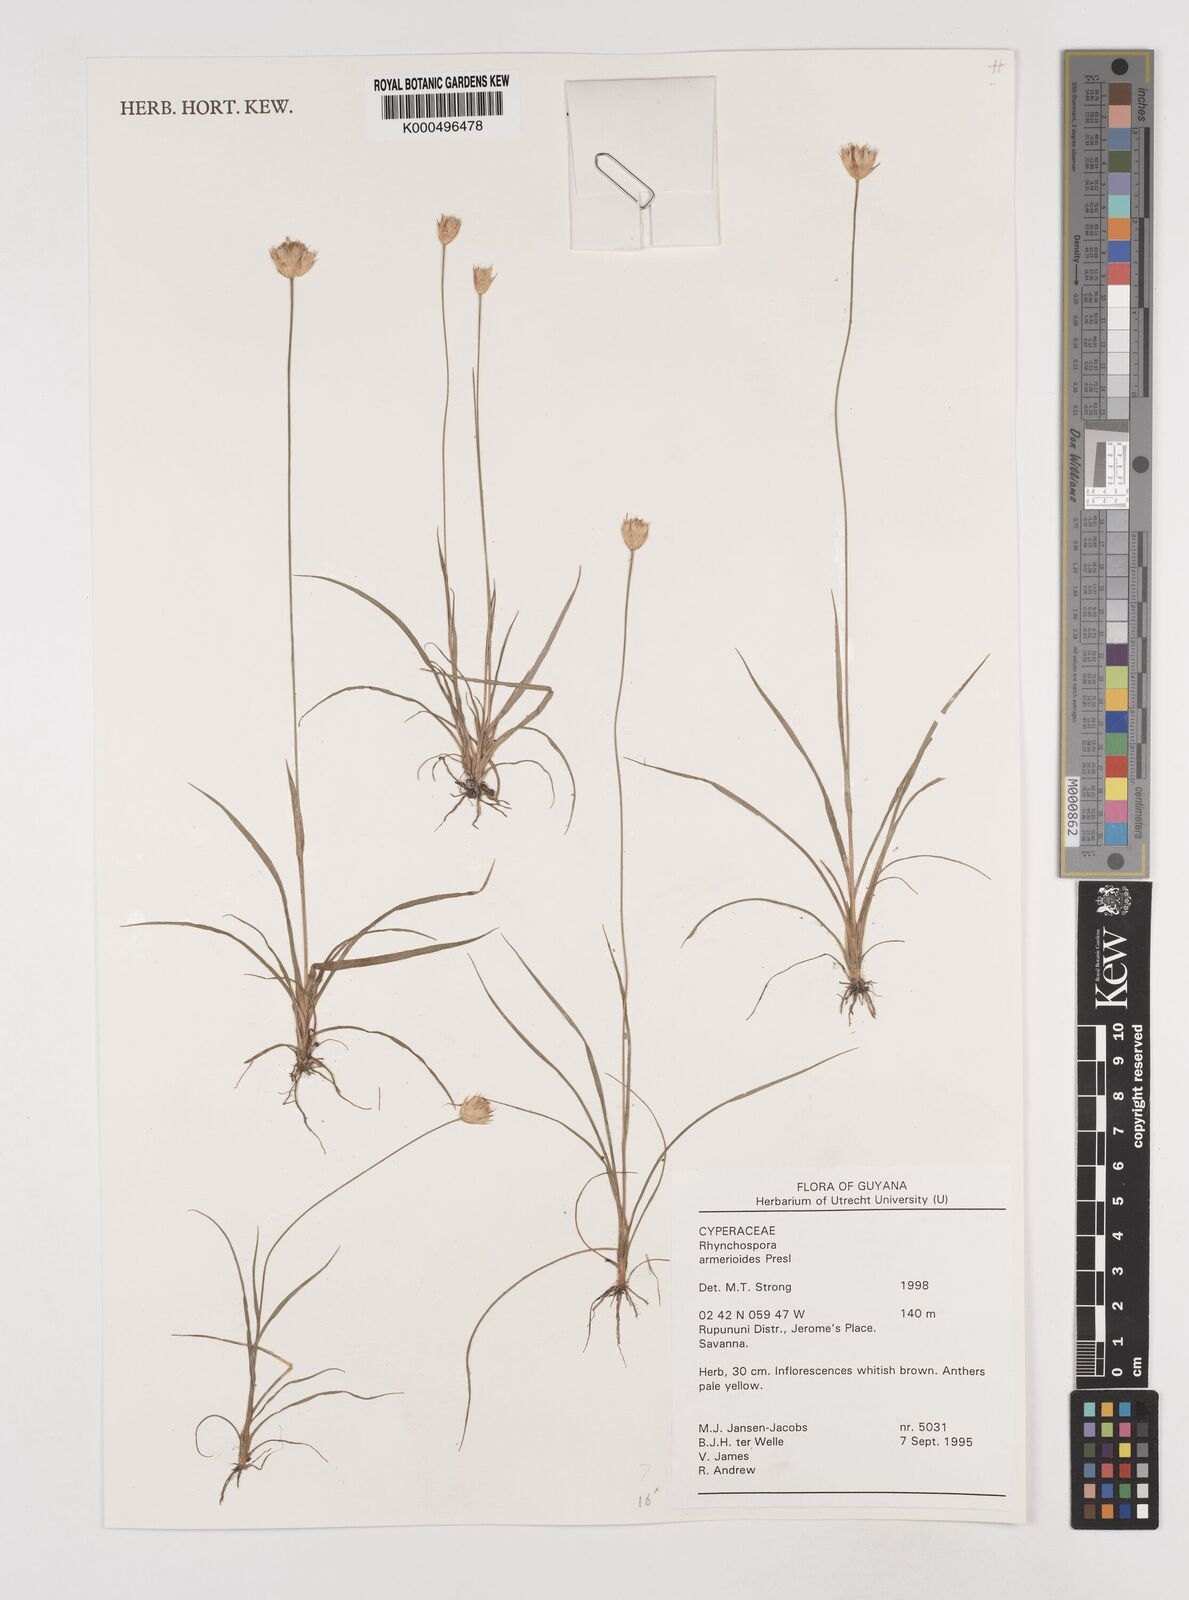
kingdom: Plantae
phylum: Tracheophyta
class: Liliopsida
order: Poales
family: Cyperaceae
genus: Rhynchospora
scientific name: Rhynchospora armerioides
